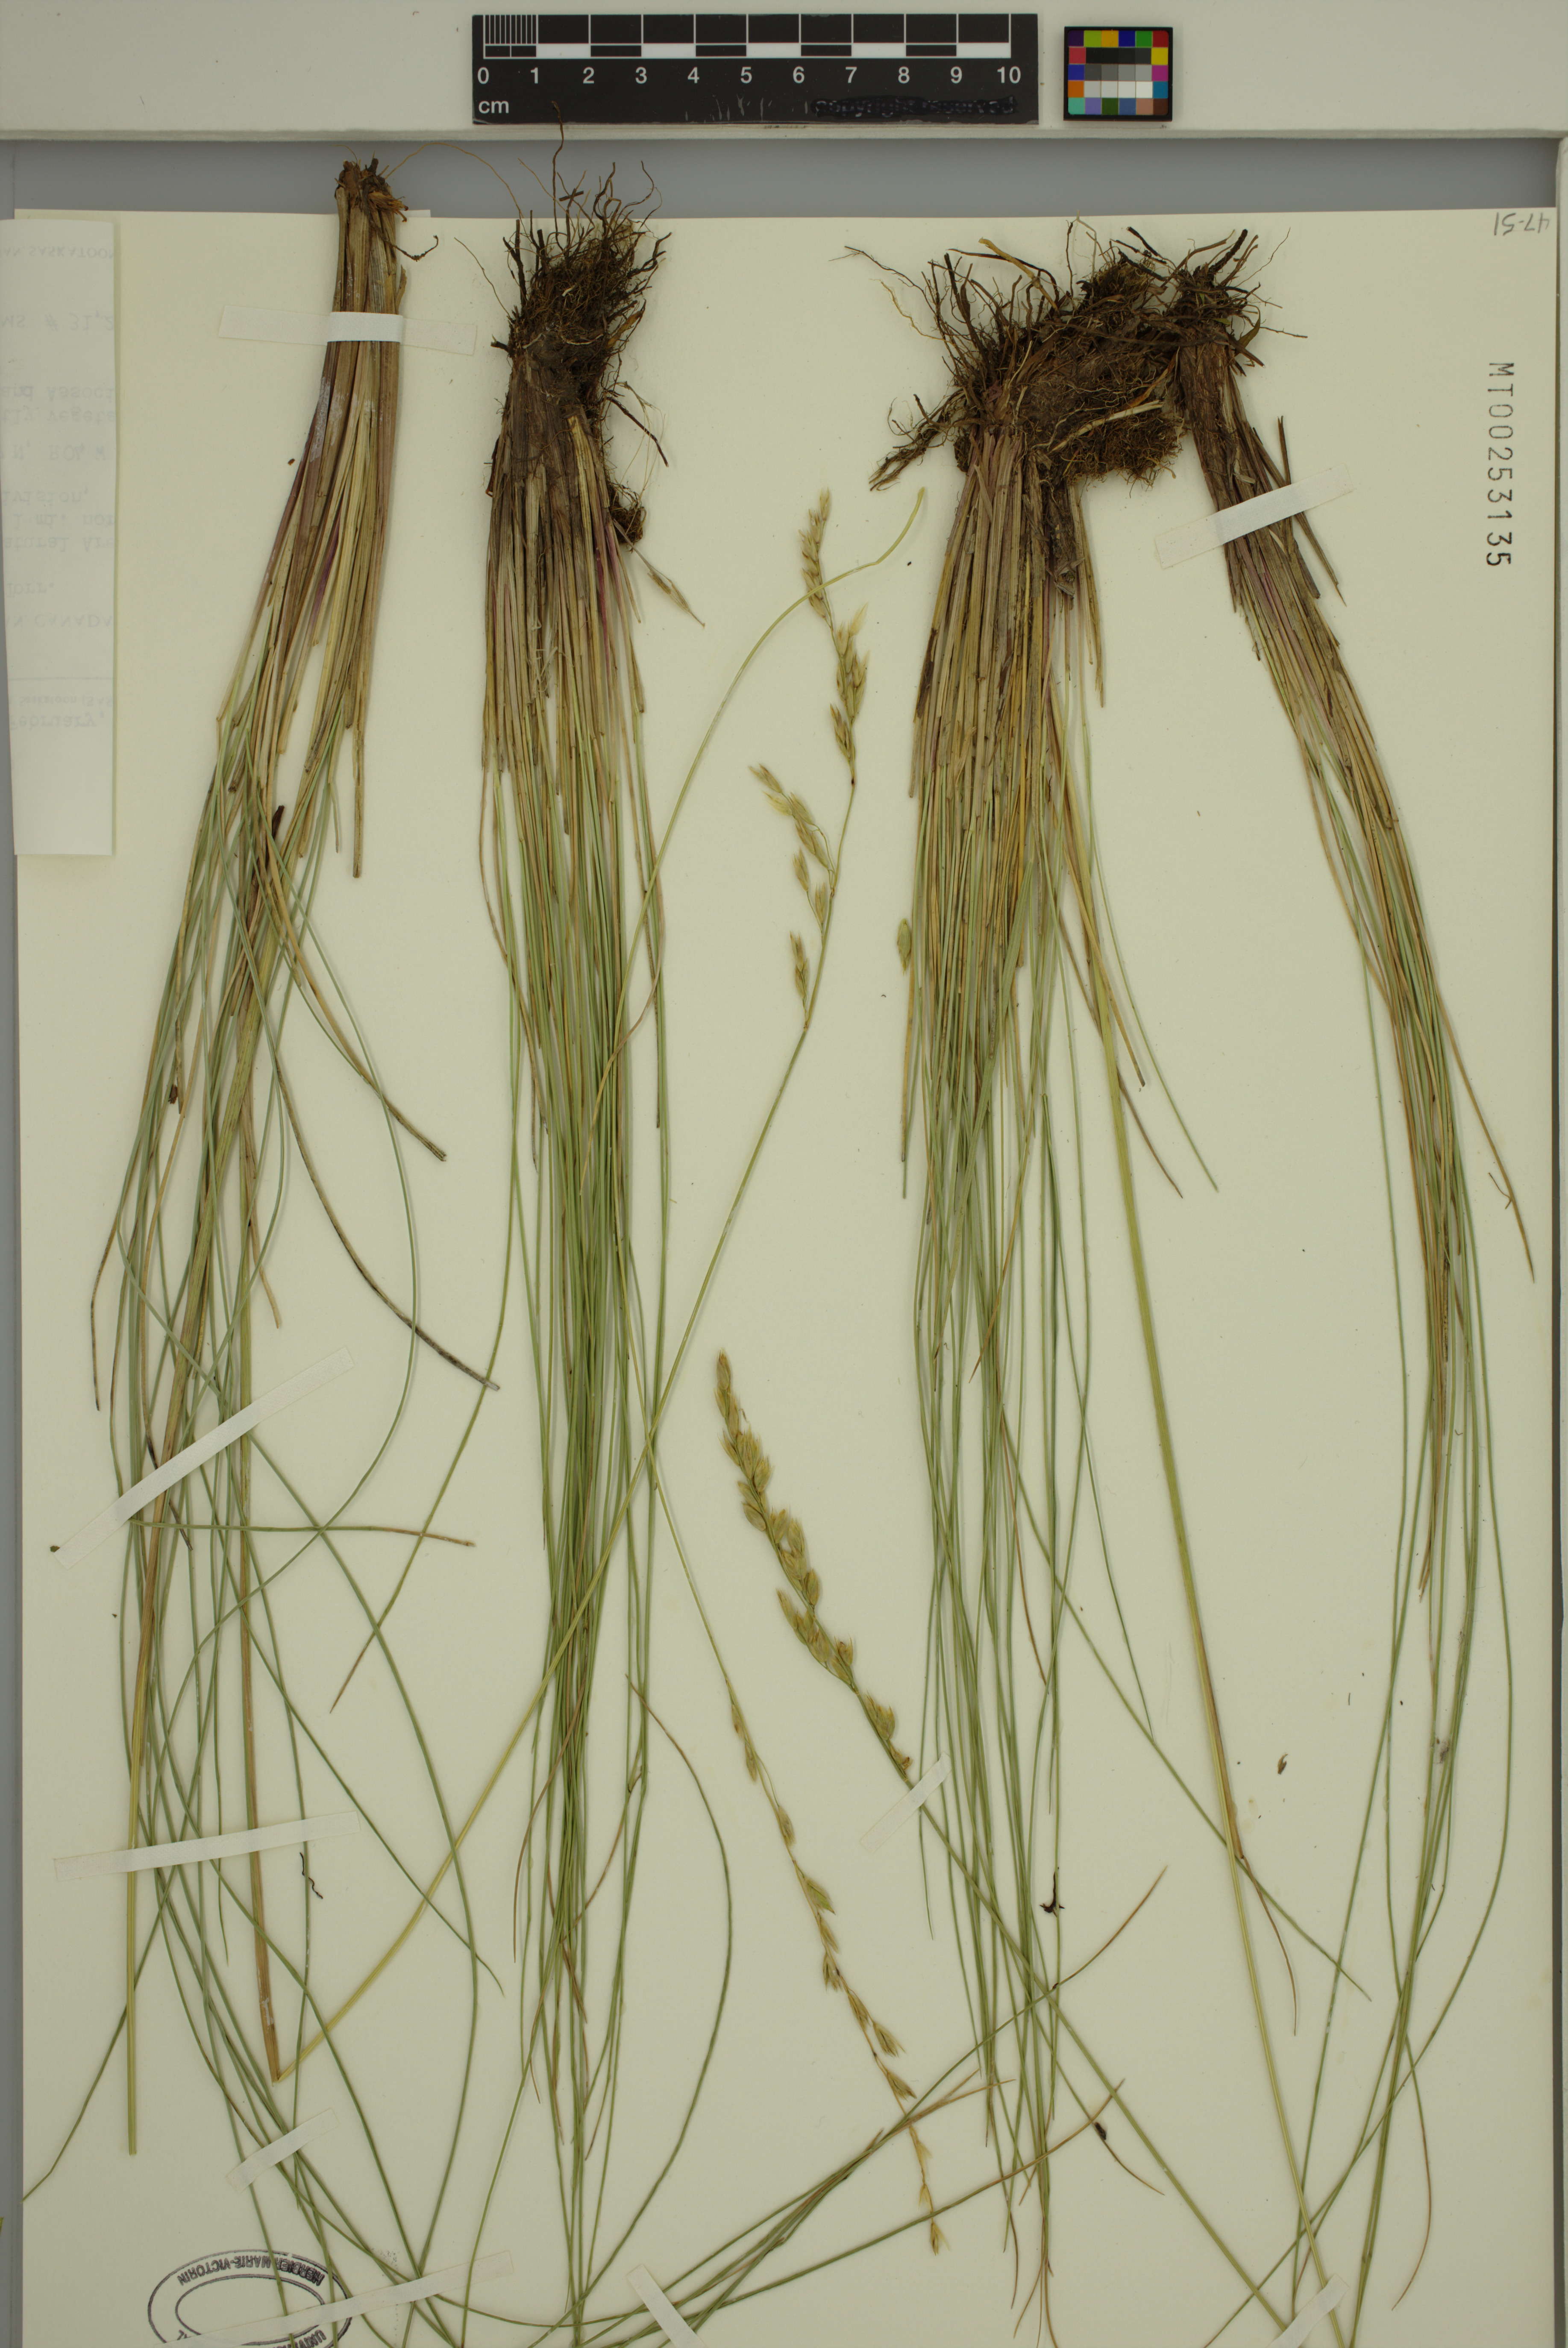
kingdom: Plantae
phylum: Tracheophyta
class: Liliopsida
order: Poales
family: Poaceae
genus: Festuca
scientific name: Festuca hallii
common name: Hall's fescue
